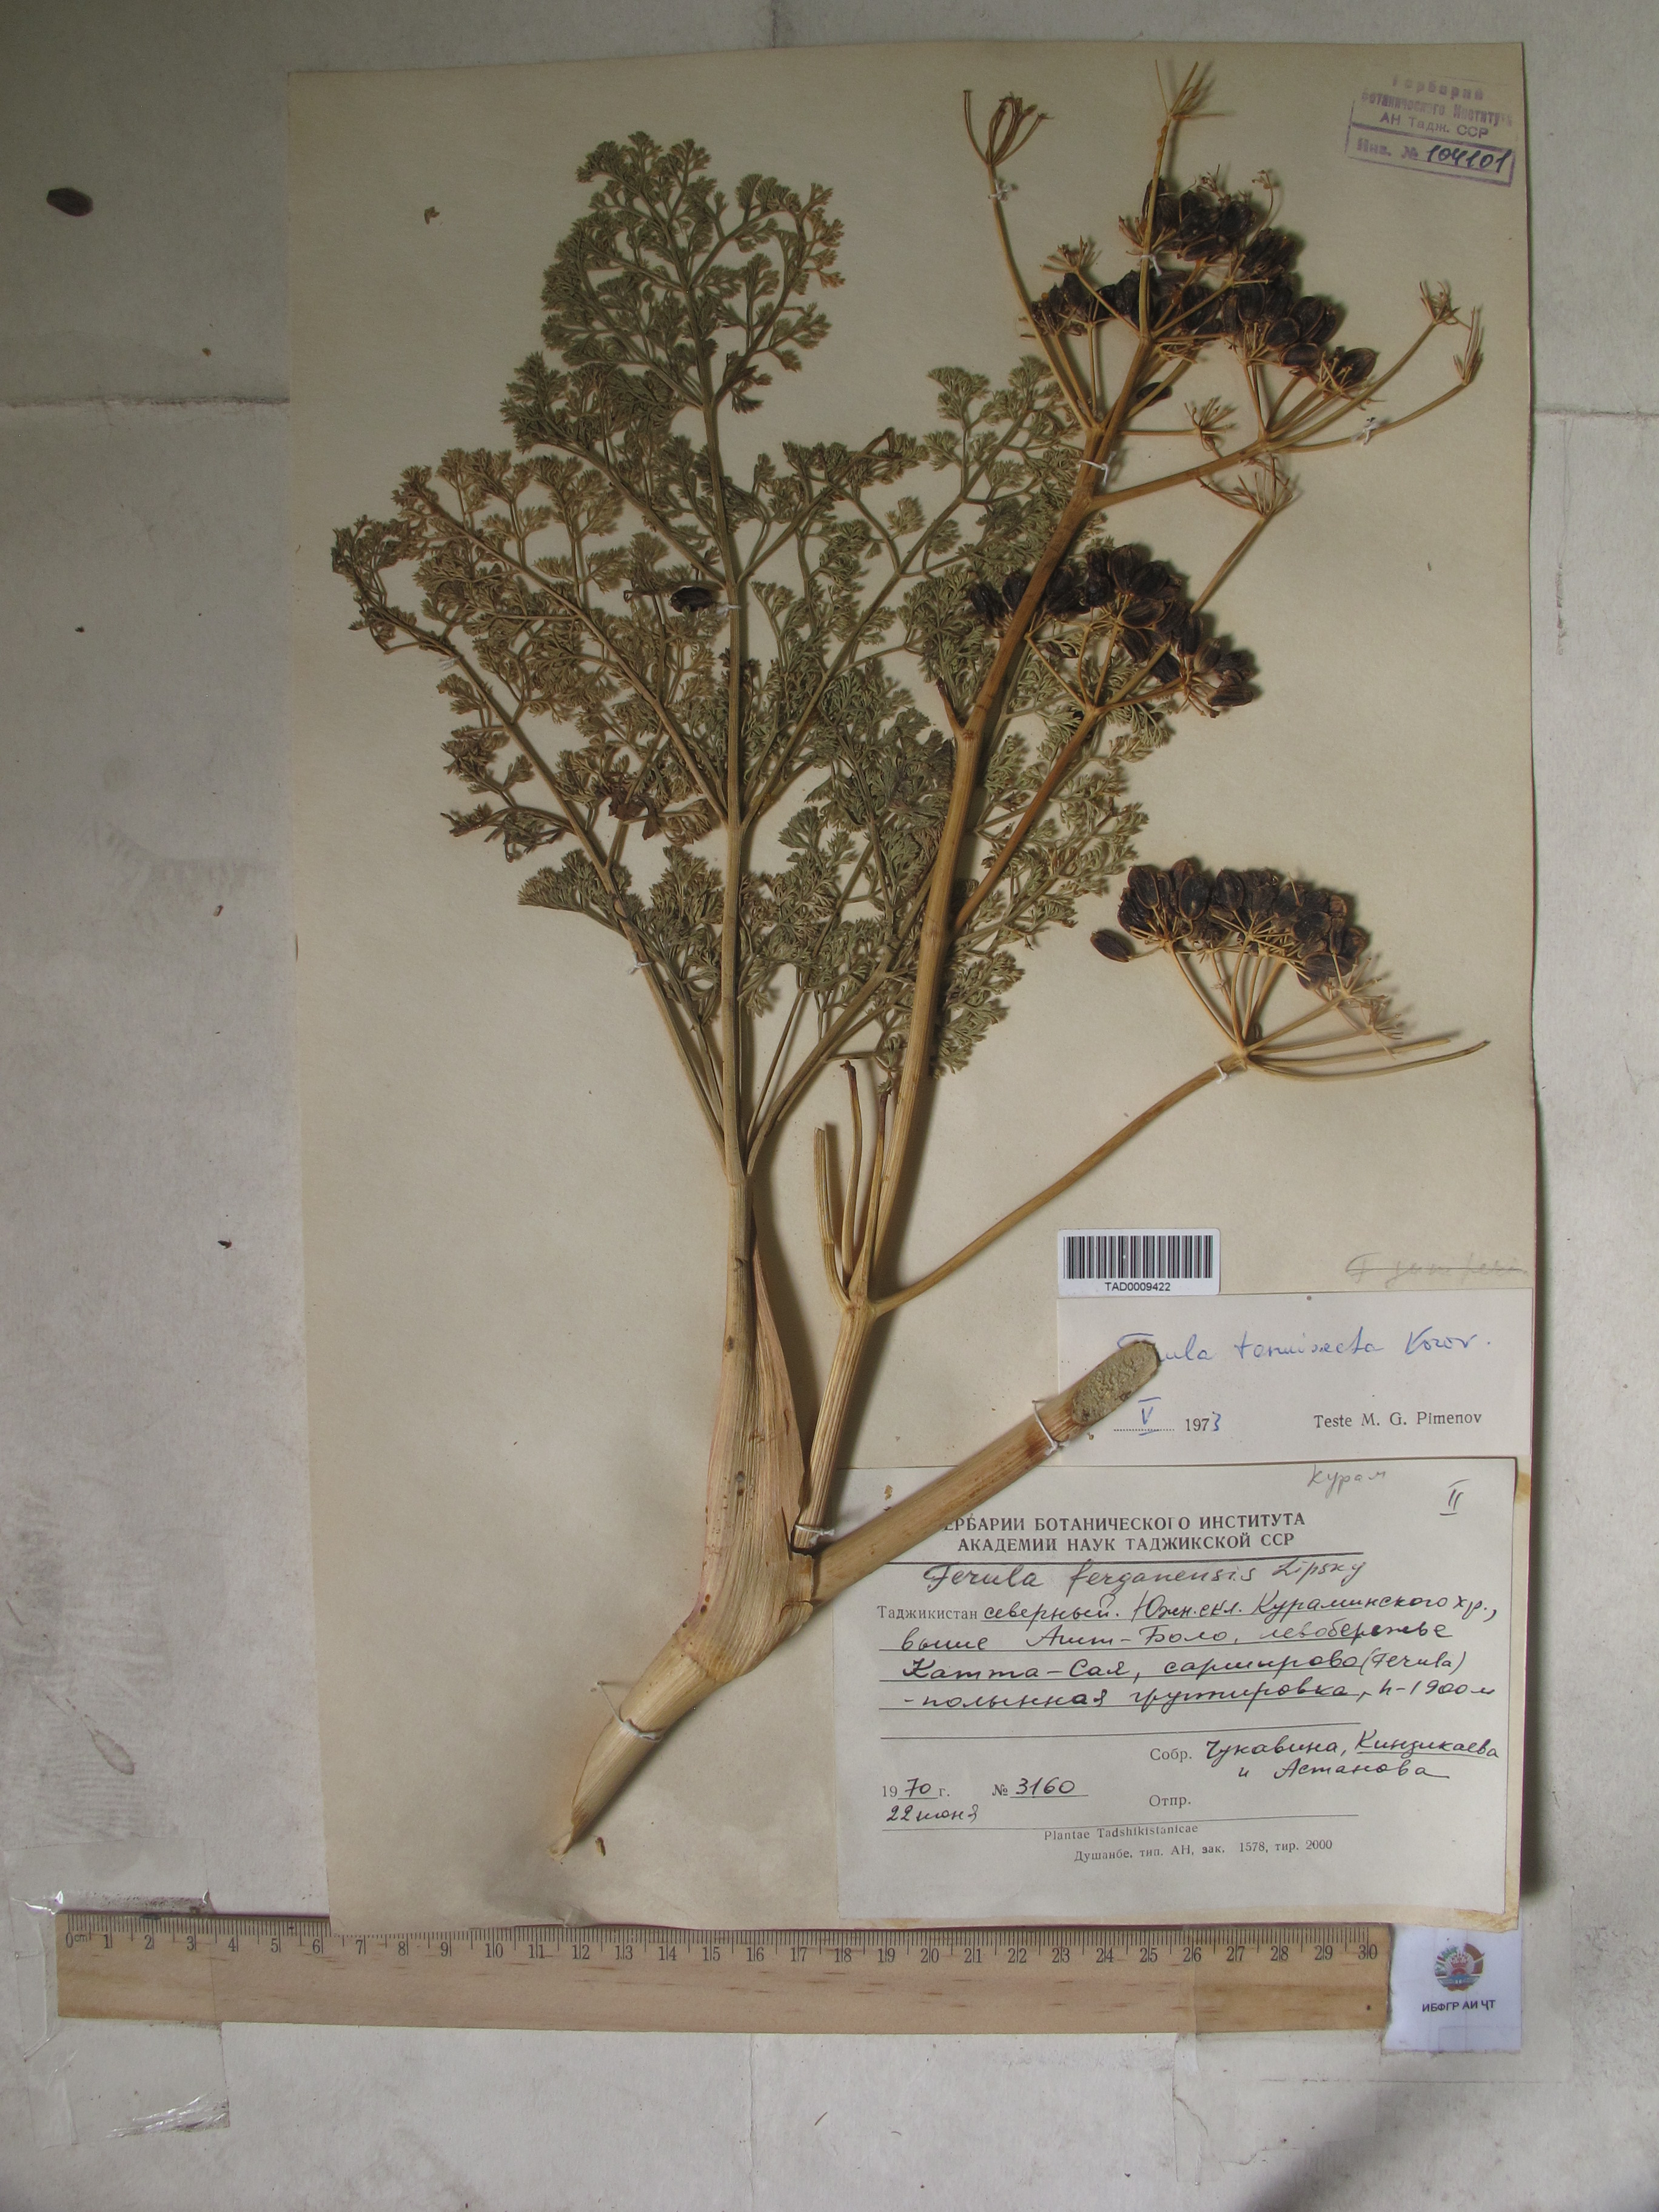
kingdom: Plantae
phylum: Tracheophyta
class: Magnoliopsida
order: Apiales
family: Apiaceae
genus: Ferula
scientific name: Ferula tenuisecta
